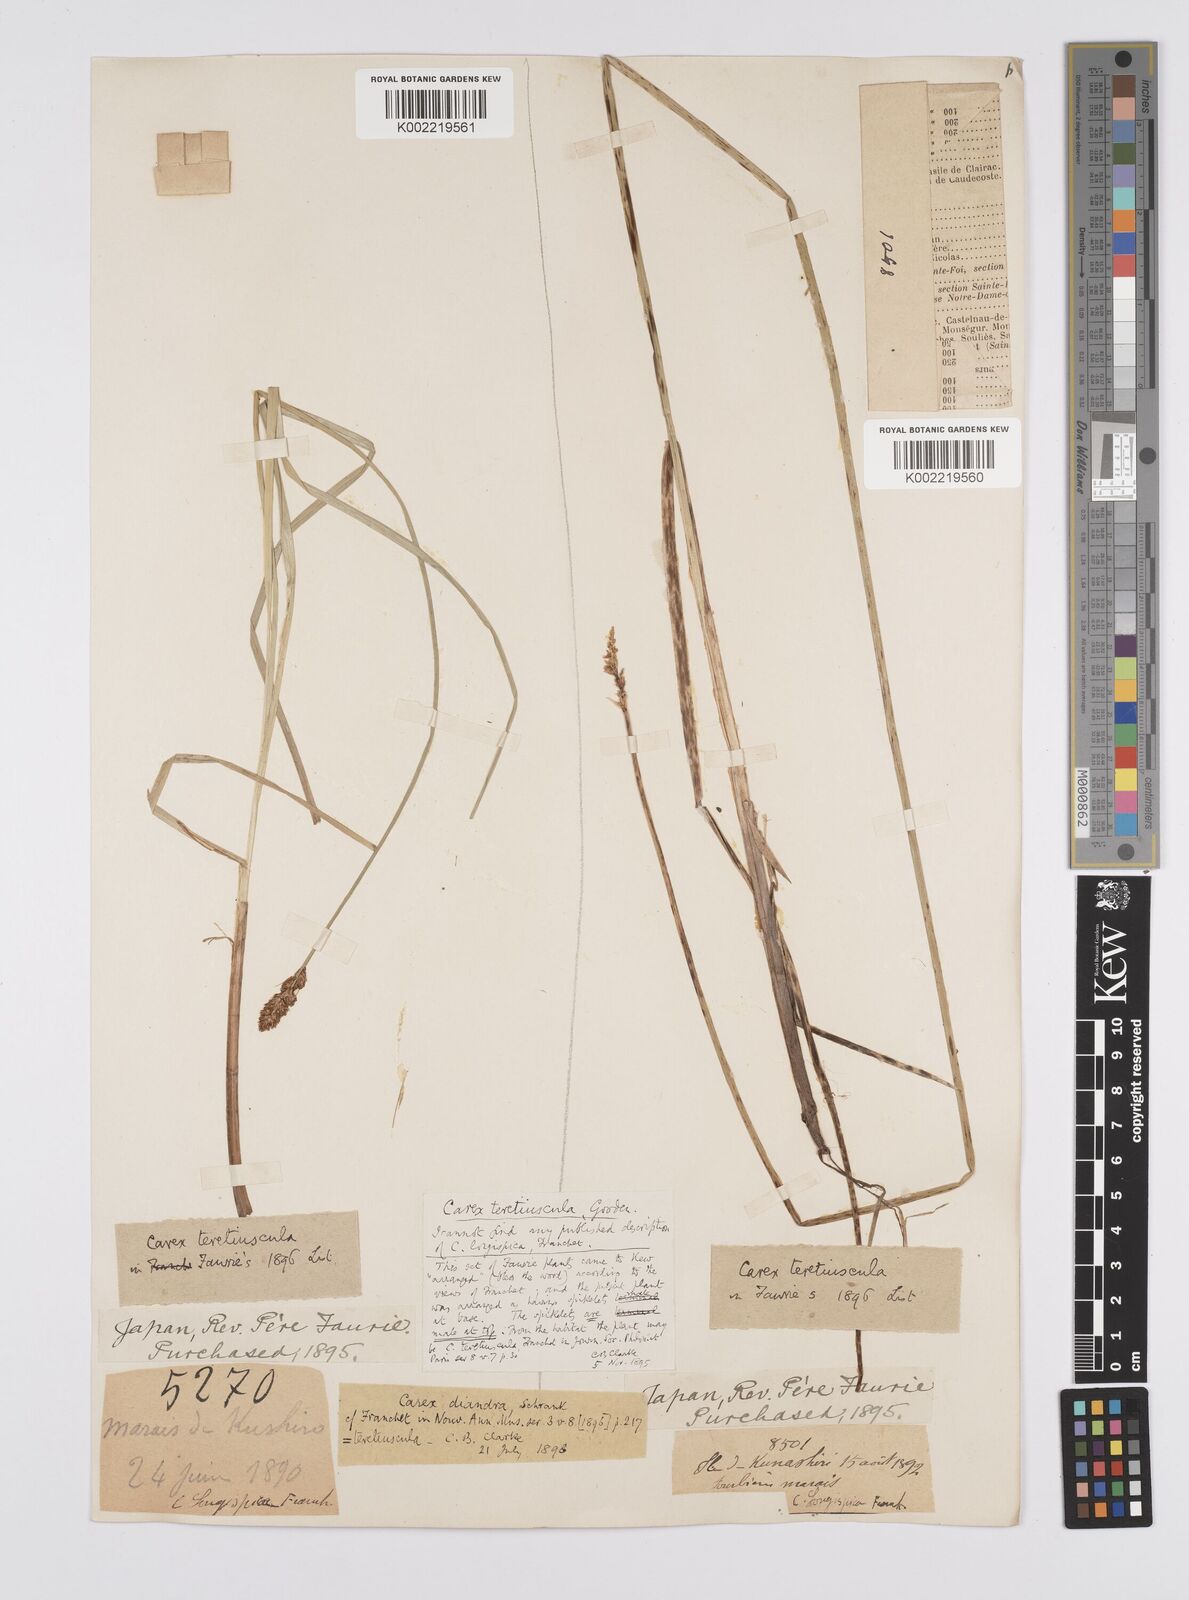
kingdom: Plantae
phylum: Tracheophyta
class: Liliopsida
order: Poales
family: Cyperaceae
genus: Carex
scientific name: Carex diandra
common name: Lesser tussock-sedge
